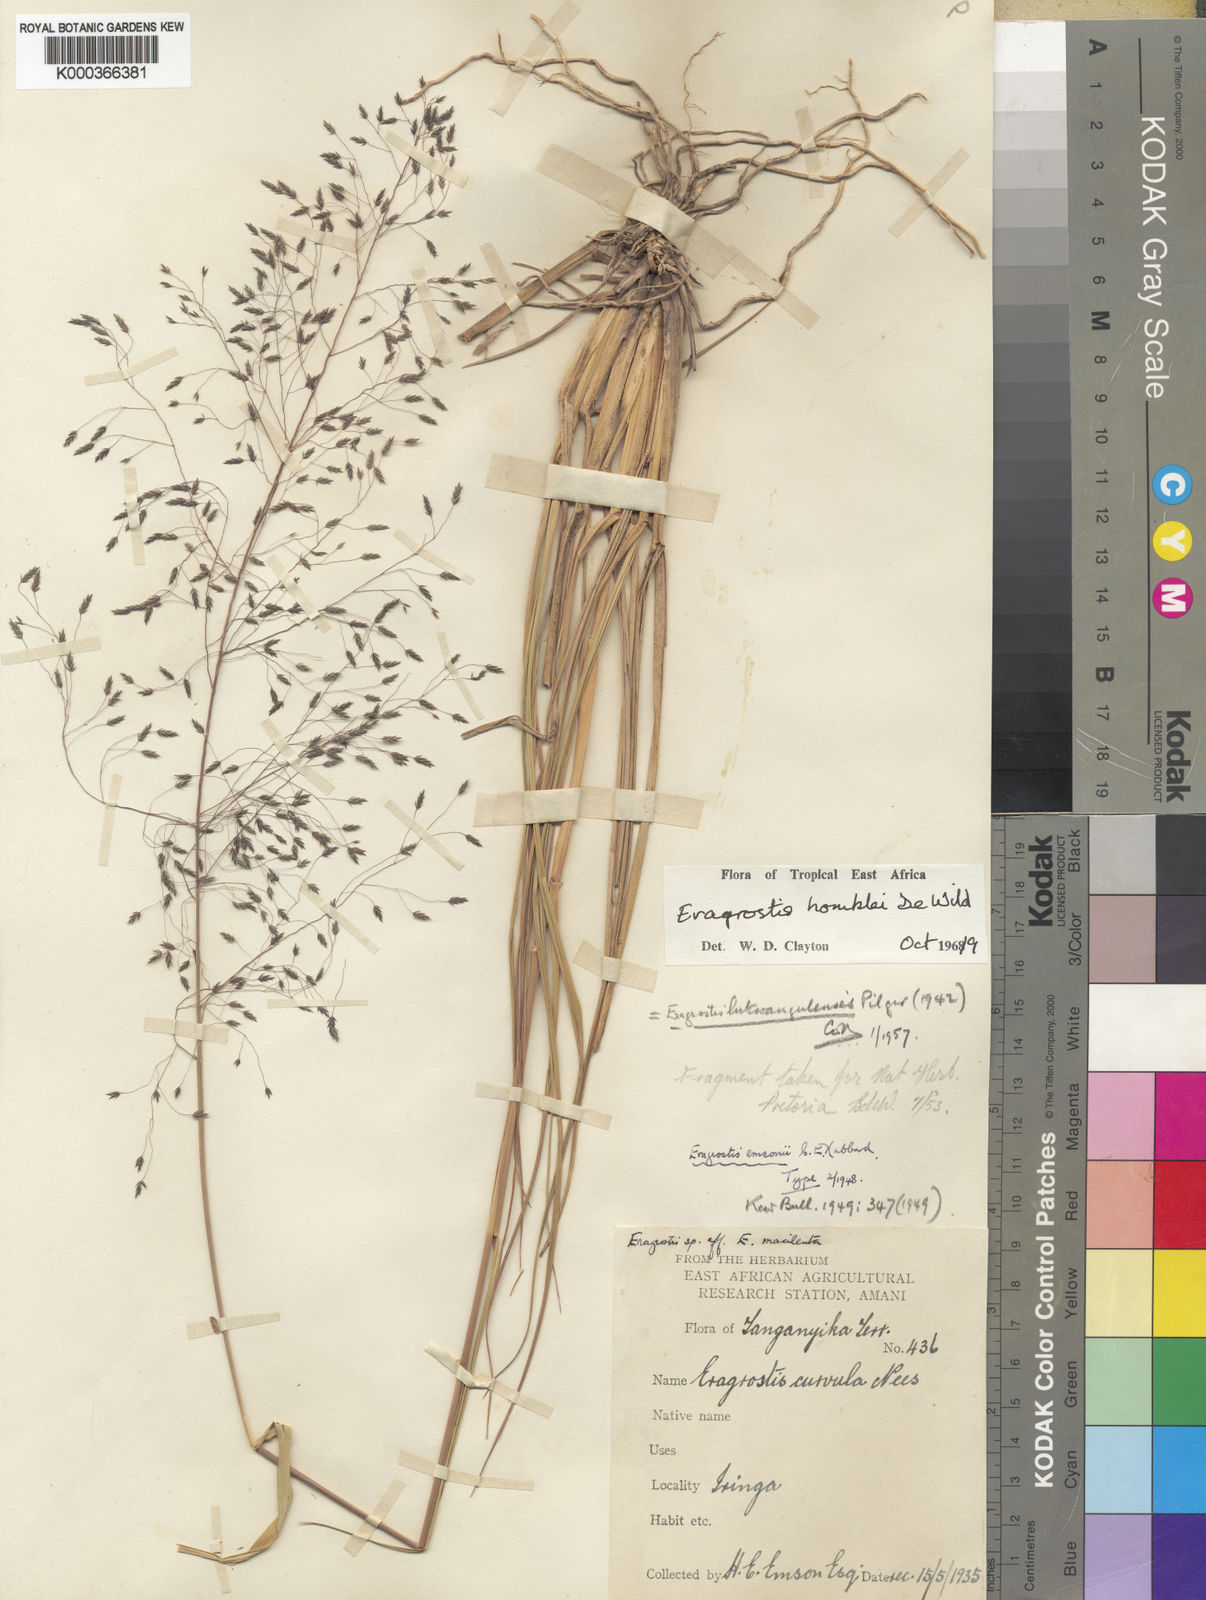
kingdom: Plantae
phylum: Tracheophyta
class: Liliopsida
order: Poales
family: Poaceae
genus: Eragrostis
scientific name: Eragrostis homblei
